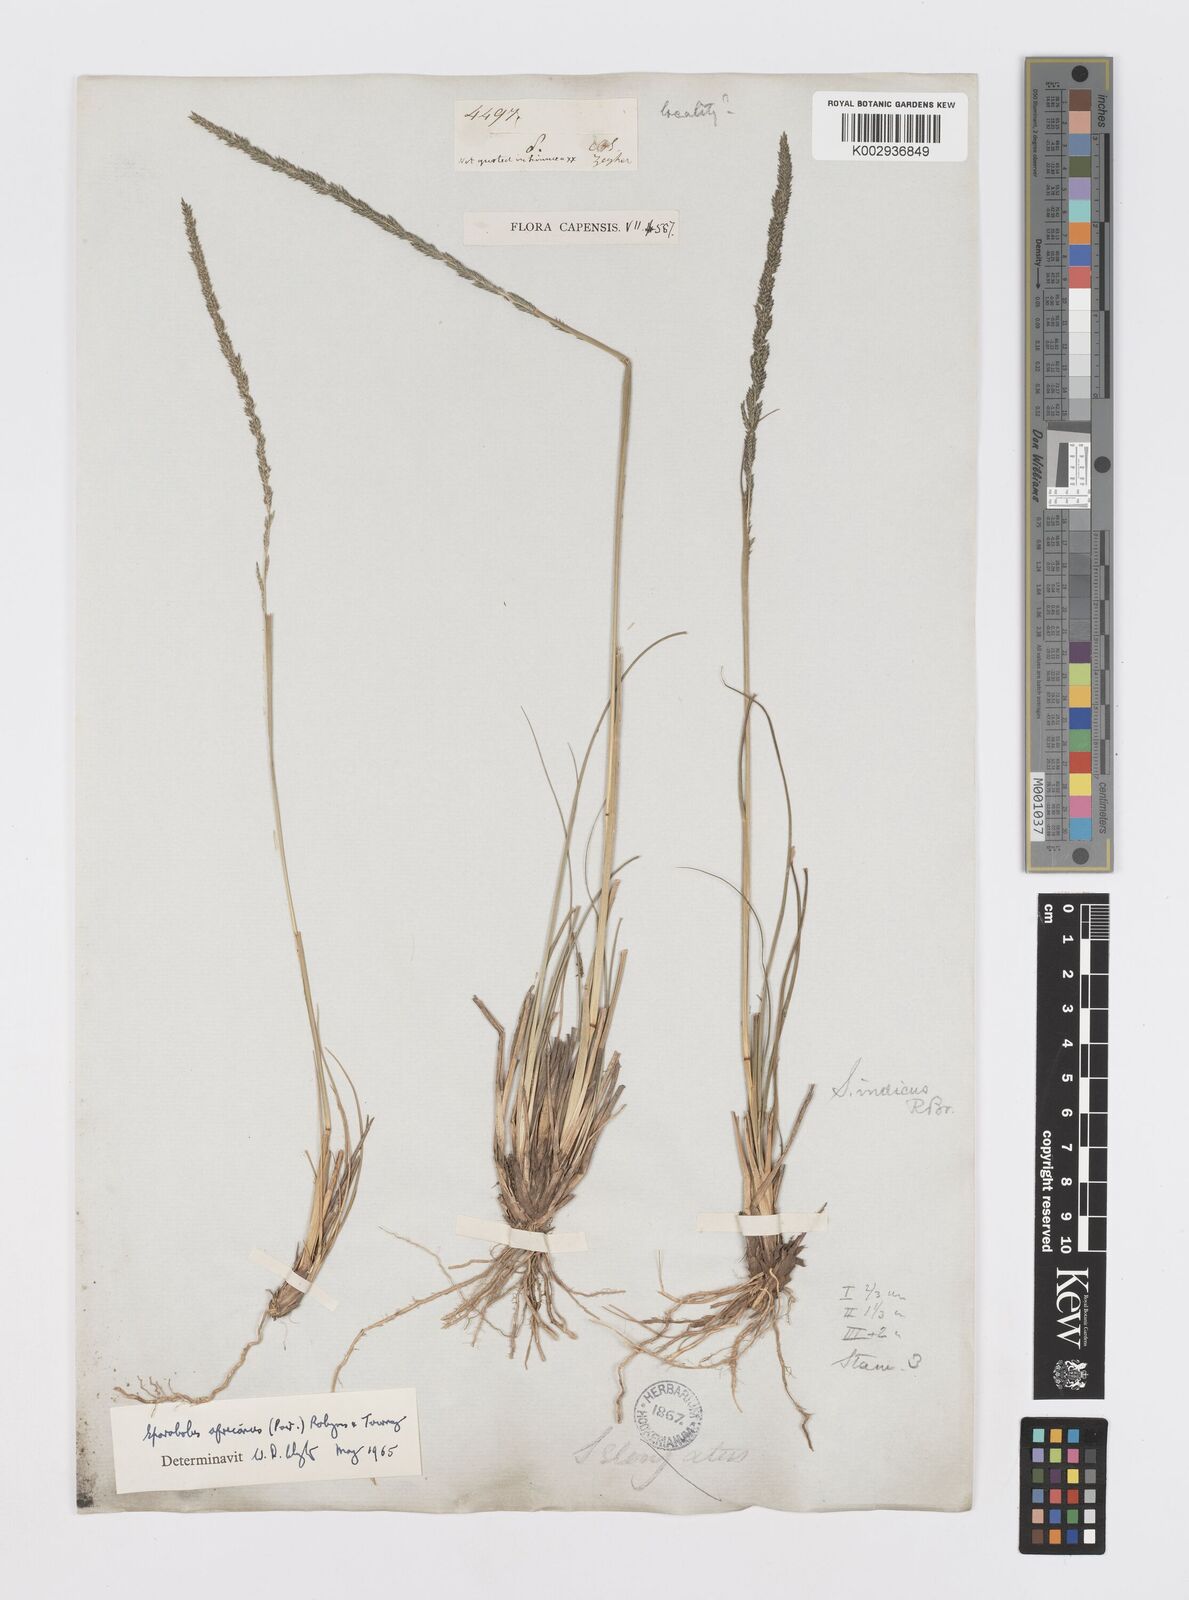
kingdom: Plantae
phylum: Tracheophyta
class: Liliopsida
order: Poales
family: Poaceae
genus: Sporobolus
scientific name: Sporobolus africanus
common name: African dropseed
